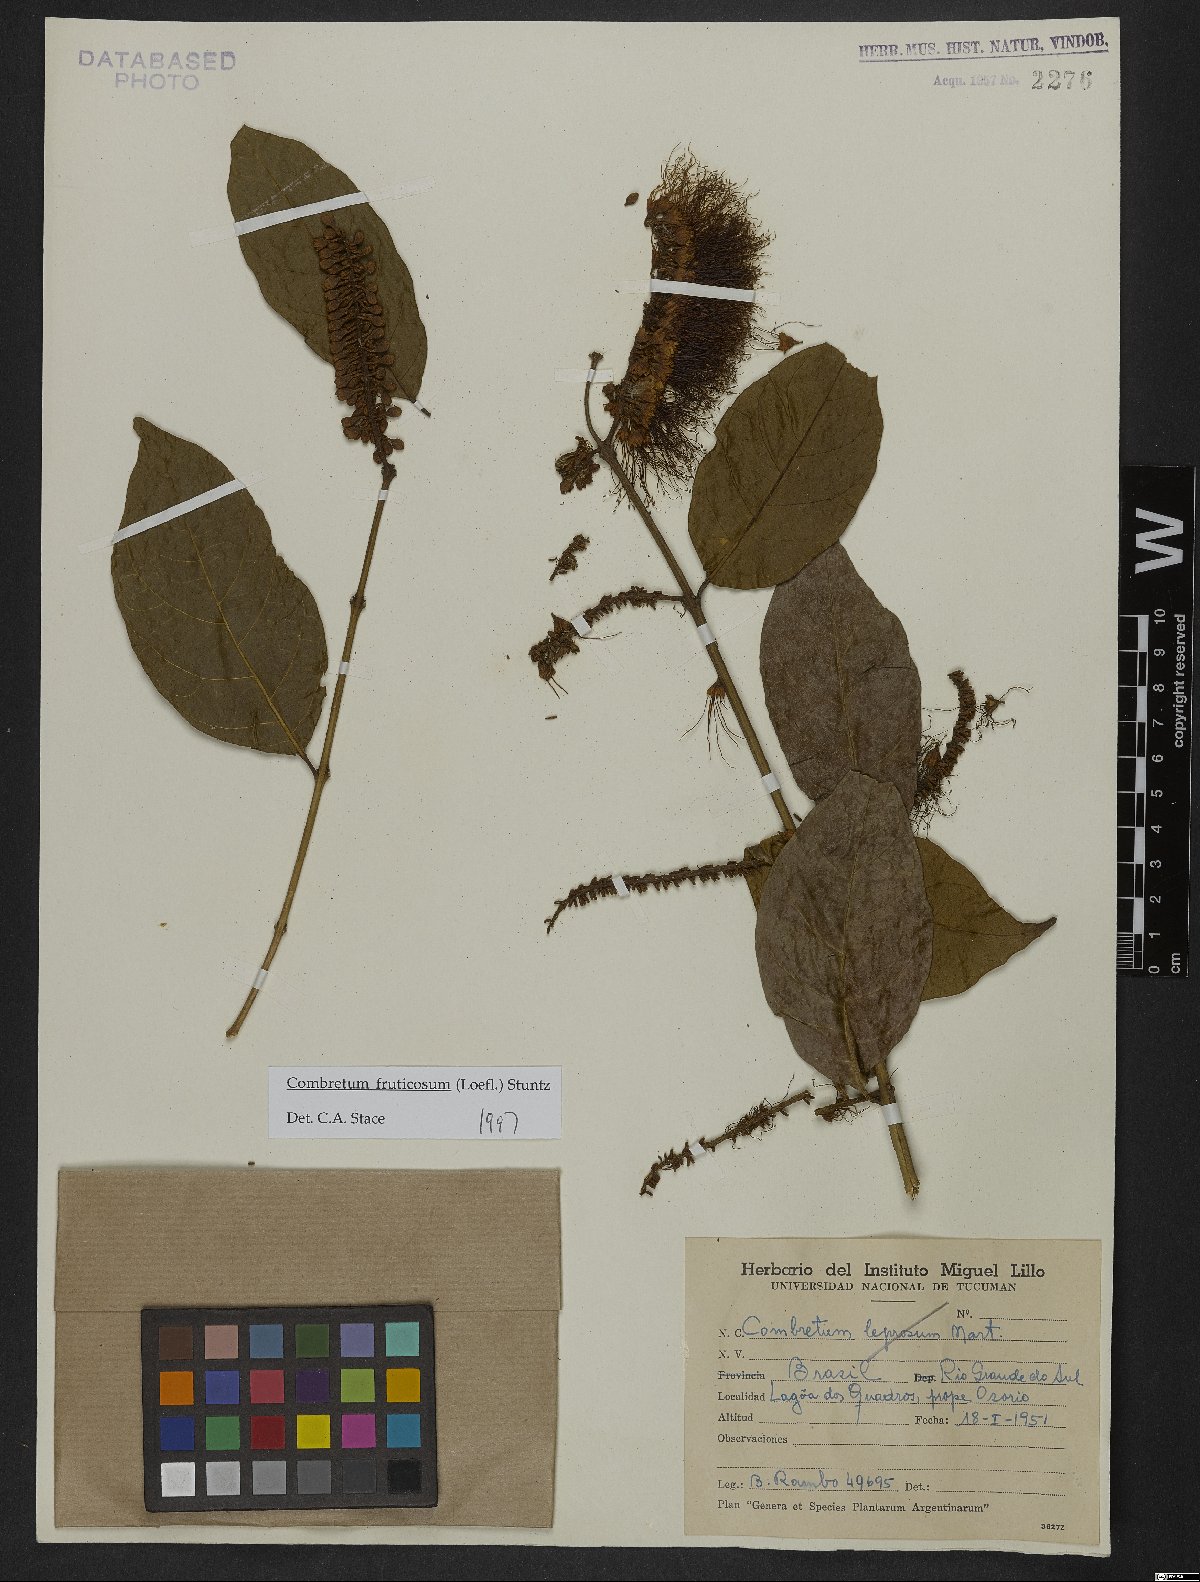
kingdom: Plantae
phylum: Tracheophyta
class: Magnoliopsida
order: Myrtales
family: Combretaceae
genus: Combretum
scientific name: Combretum fruticosum
